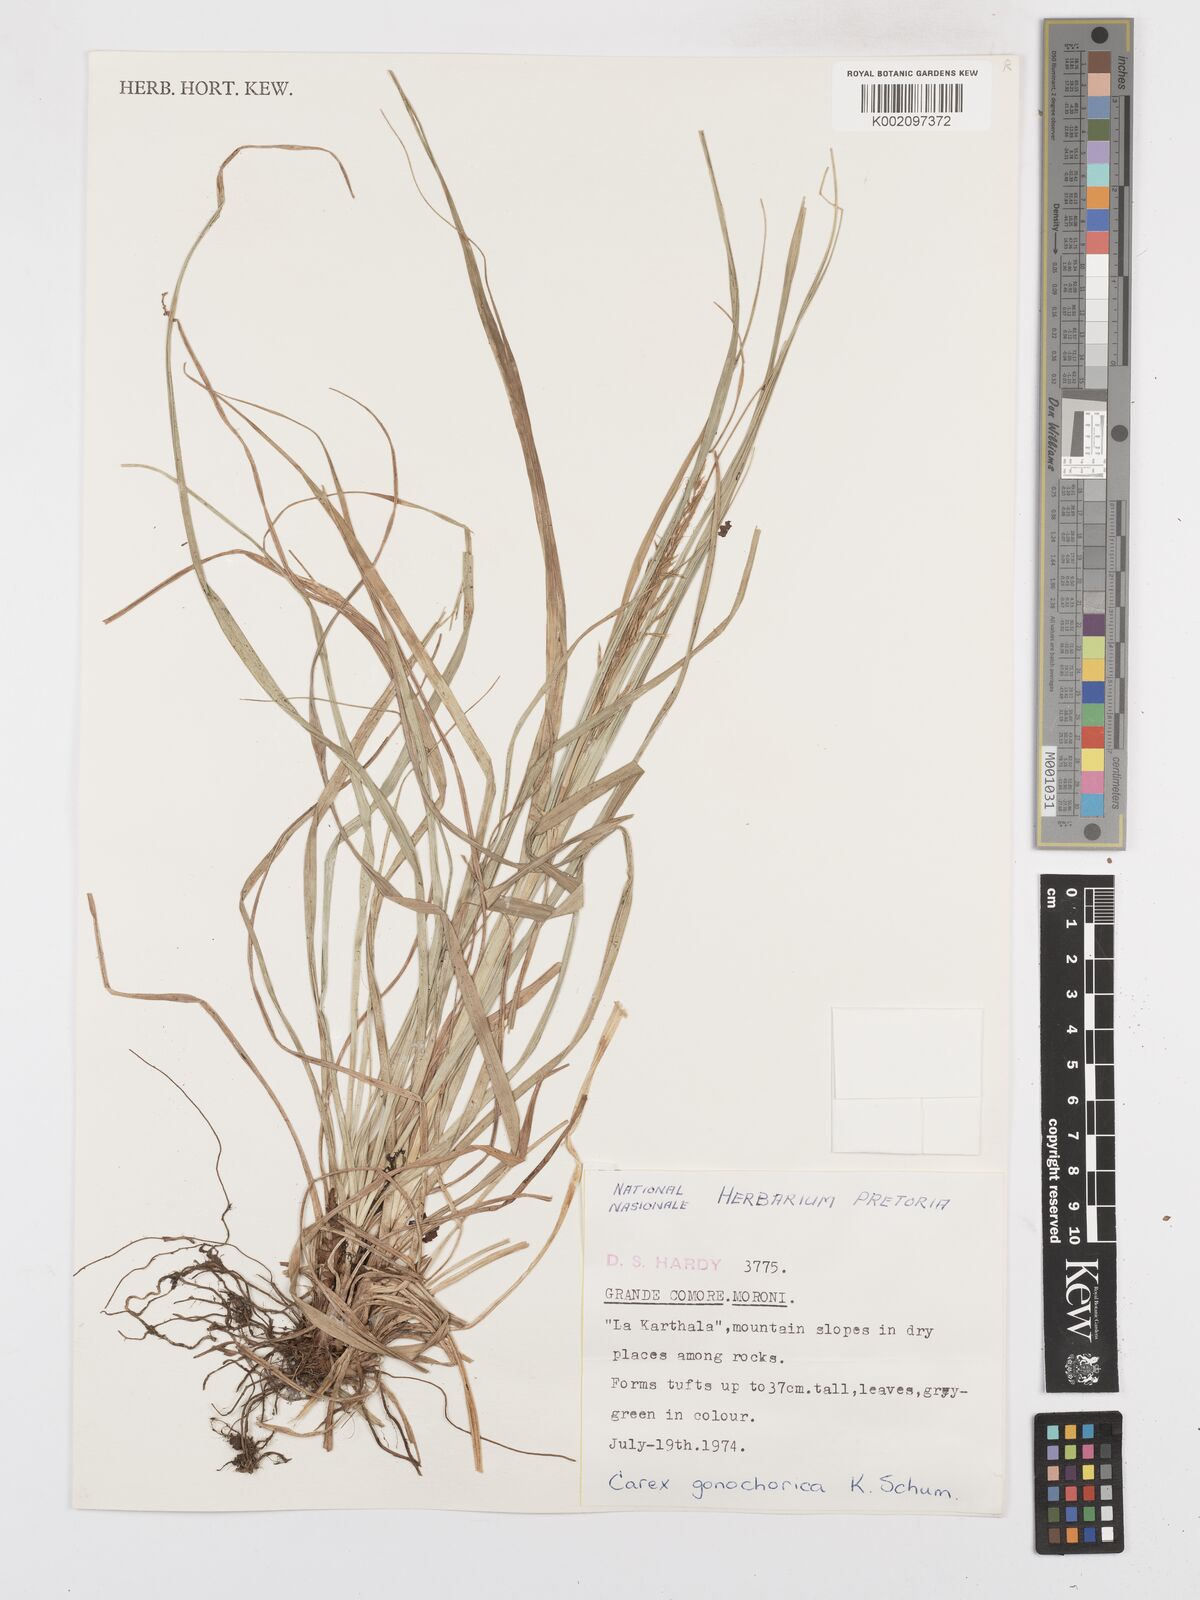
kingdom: Plantae
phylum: Tracheophyta
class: Liliopsida
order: Poales
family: Cyperaceae
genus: Carex
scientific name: Carex pyramidalis
